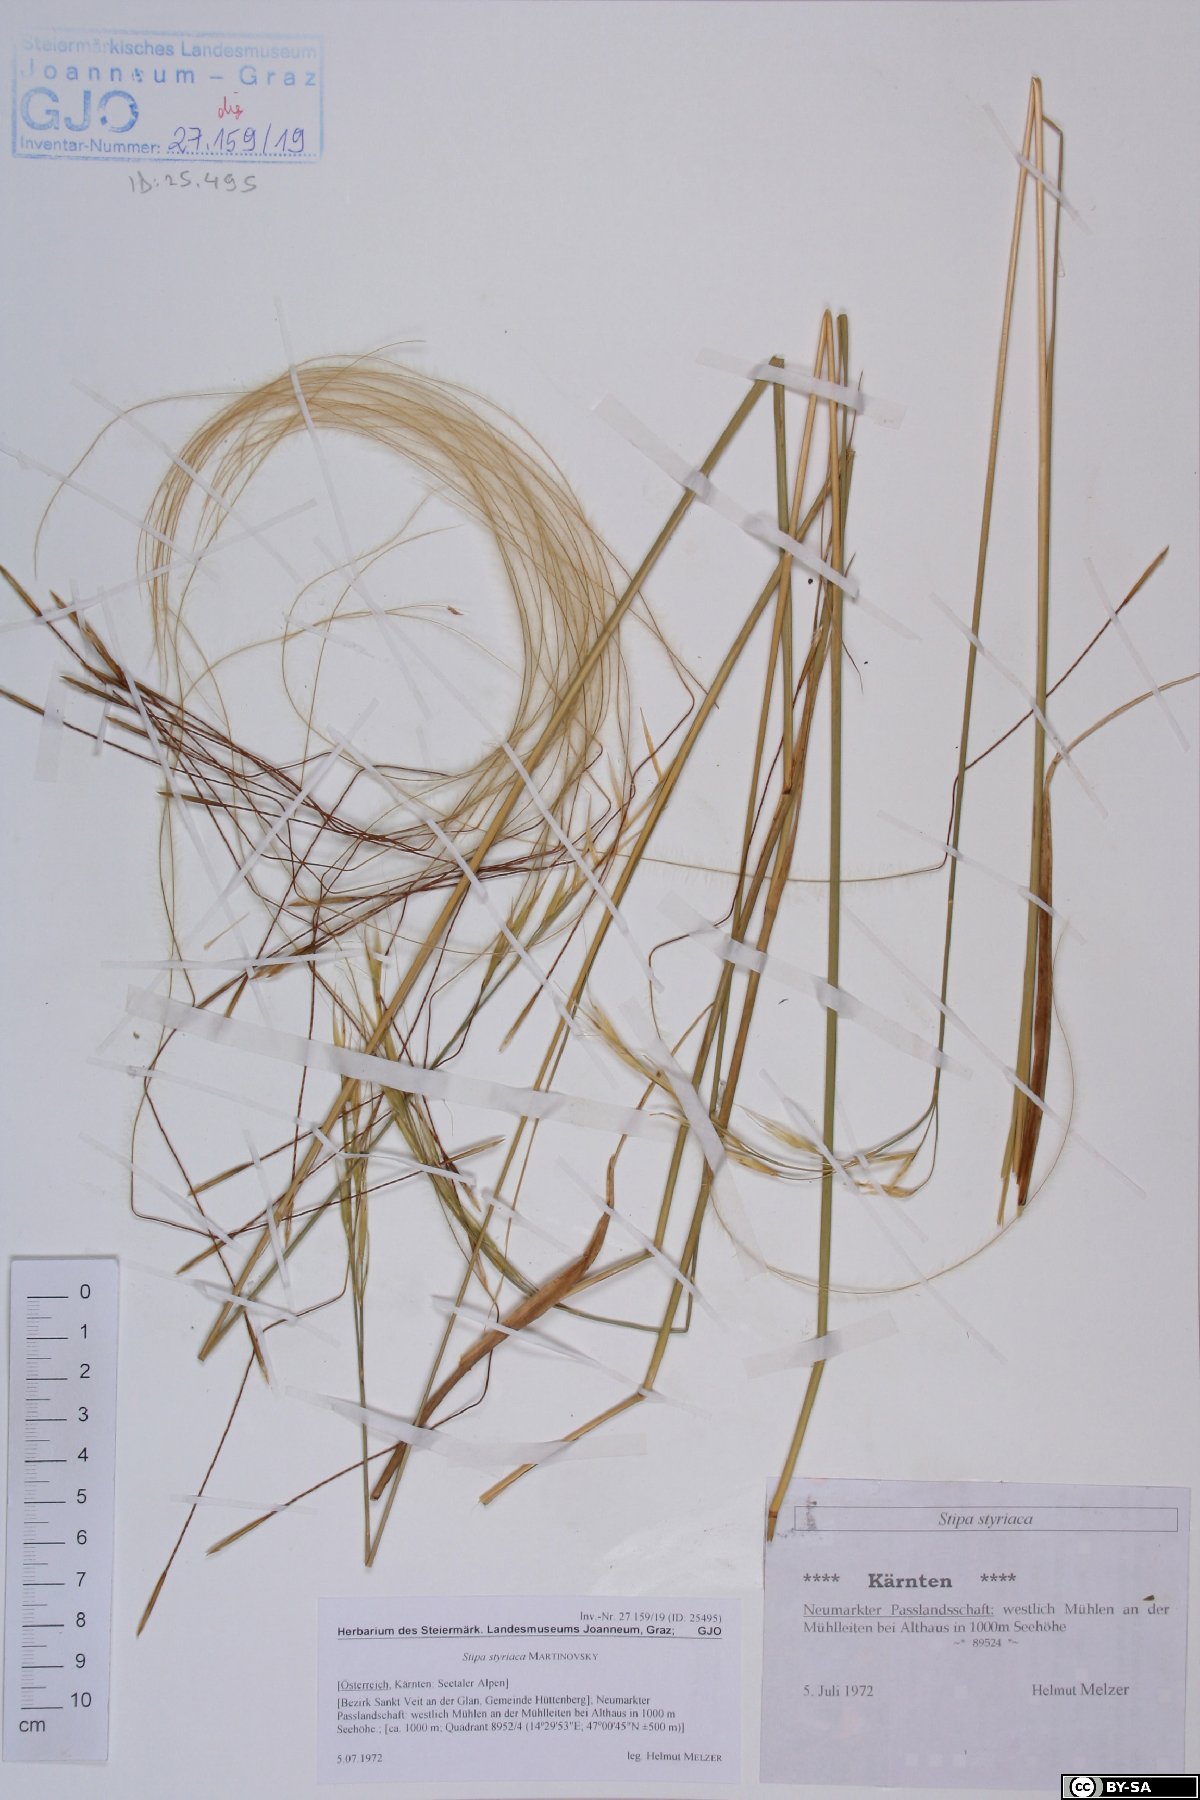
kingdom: Plantae
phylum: Tracheophyta
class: Liliopsida
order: Poales
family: Poaceae
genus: Stipa
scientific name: Stipa pennata
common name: European feather grass
